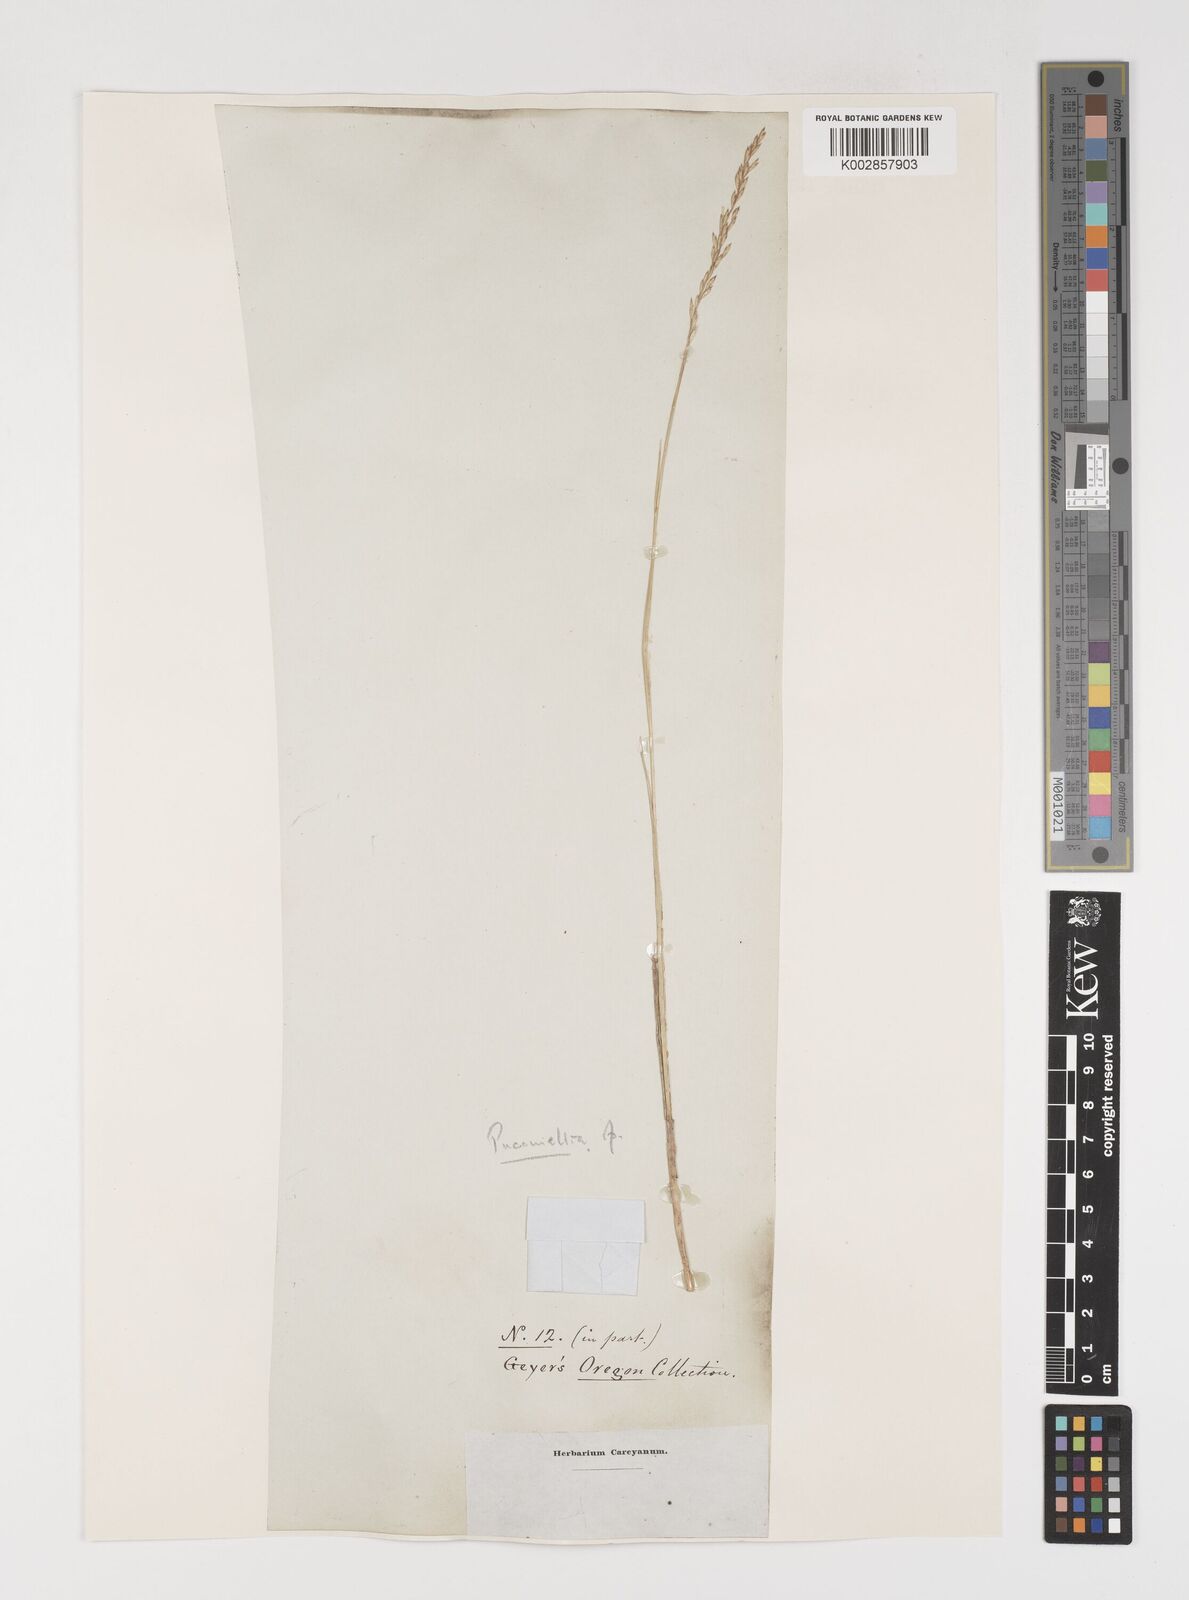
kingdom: Plantae
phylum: Tracheophyta
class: Liliopsida
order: Poales
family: Poaceae
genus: Puccinellia
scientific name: Puccinellia
